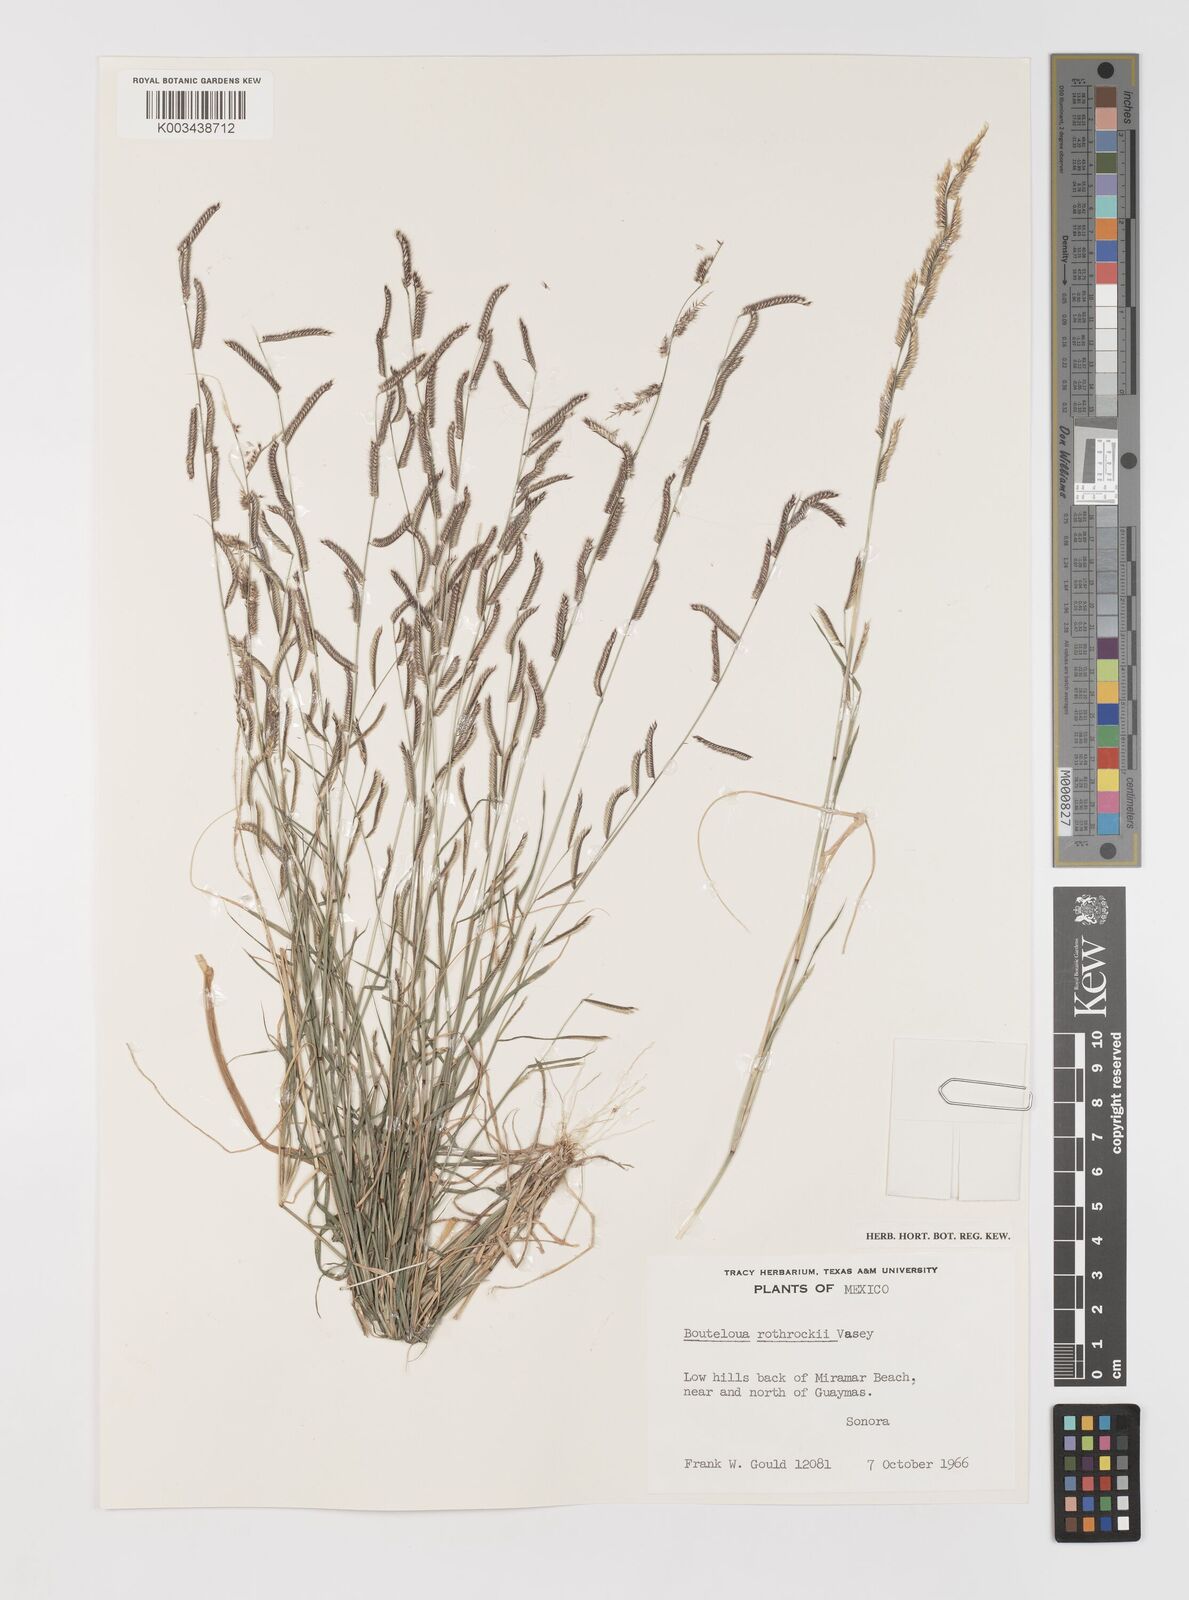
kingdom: Plantae
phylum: Tracheophyta
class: Liliopsida
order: Poales
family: Poaceae
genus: Bouteloua
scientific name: Bouteloua barbata
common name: Six-weeks grama
